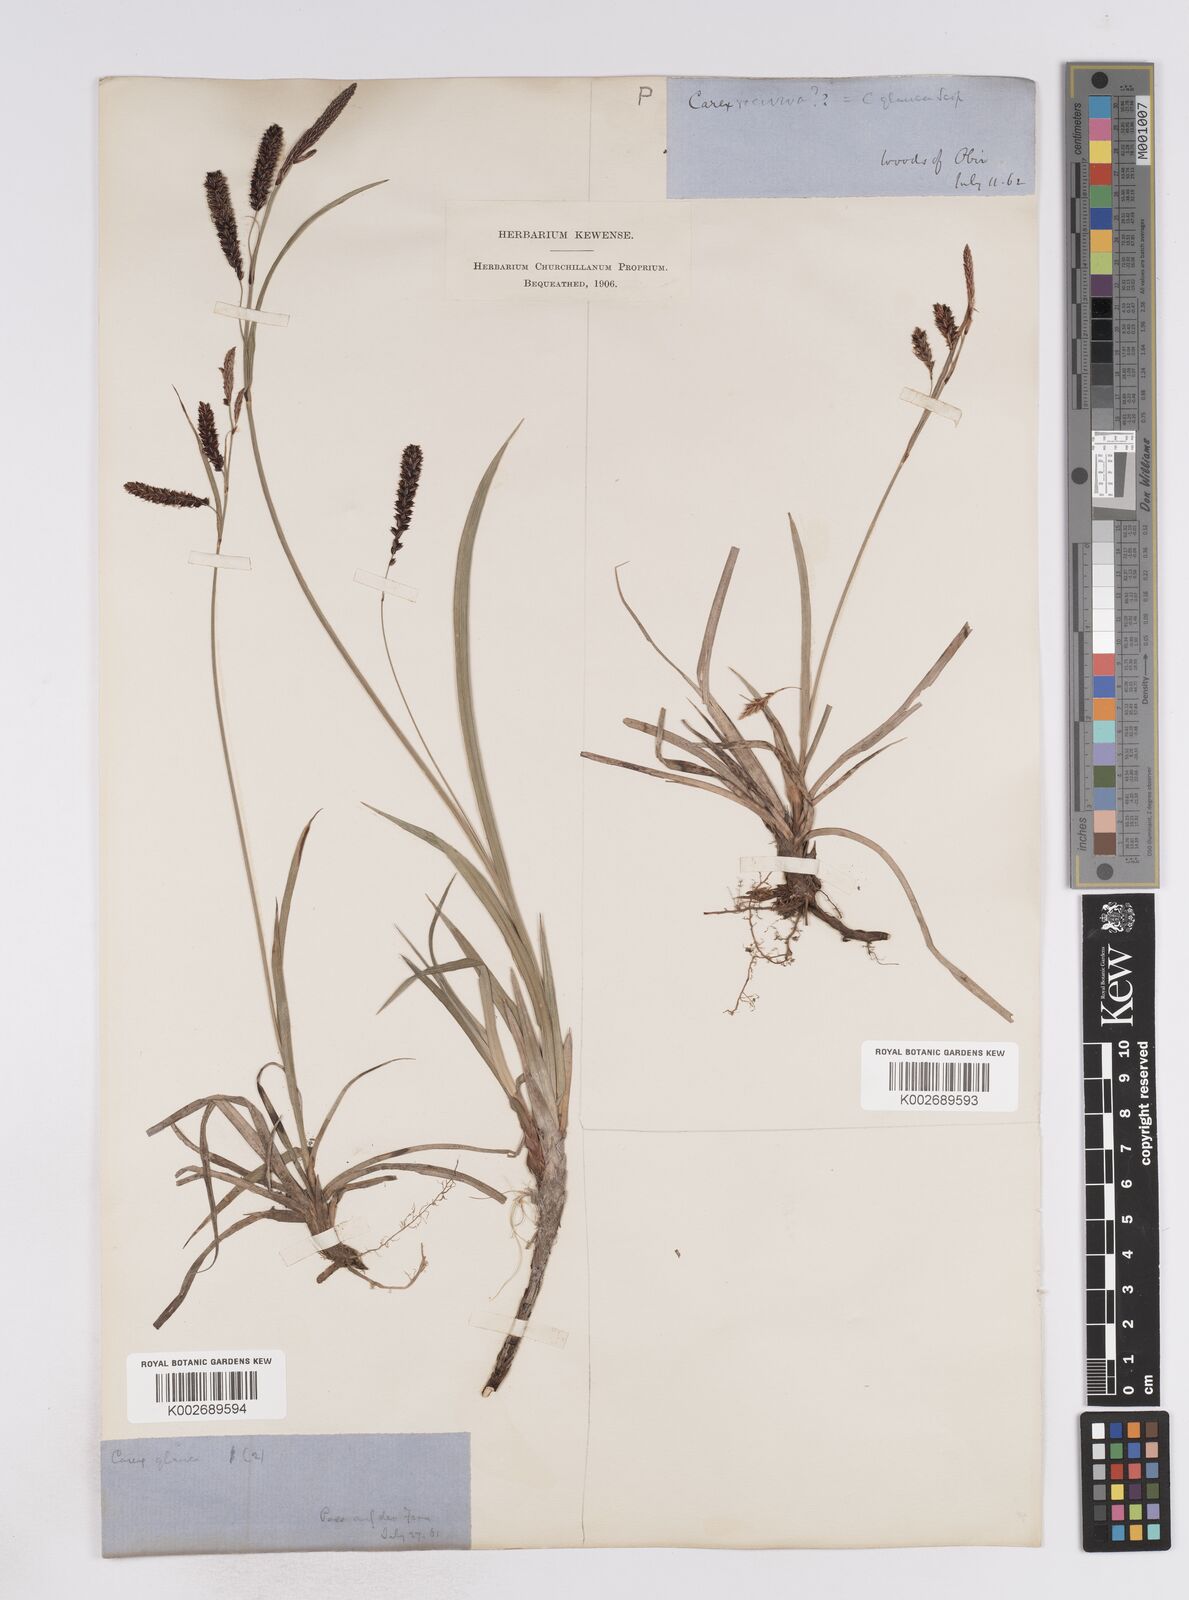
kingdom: Plantae
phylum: Tracheophyta
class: Liliopsida
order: Poales
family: Cyperaceae
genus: Carex
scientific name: Carex flacca
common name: Glaucous sedge
